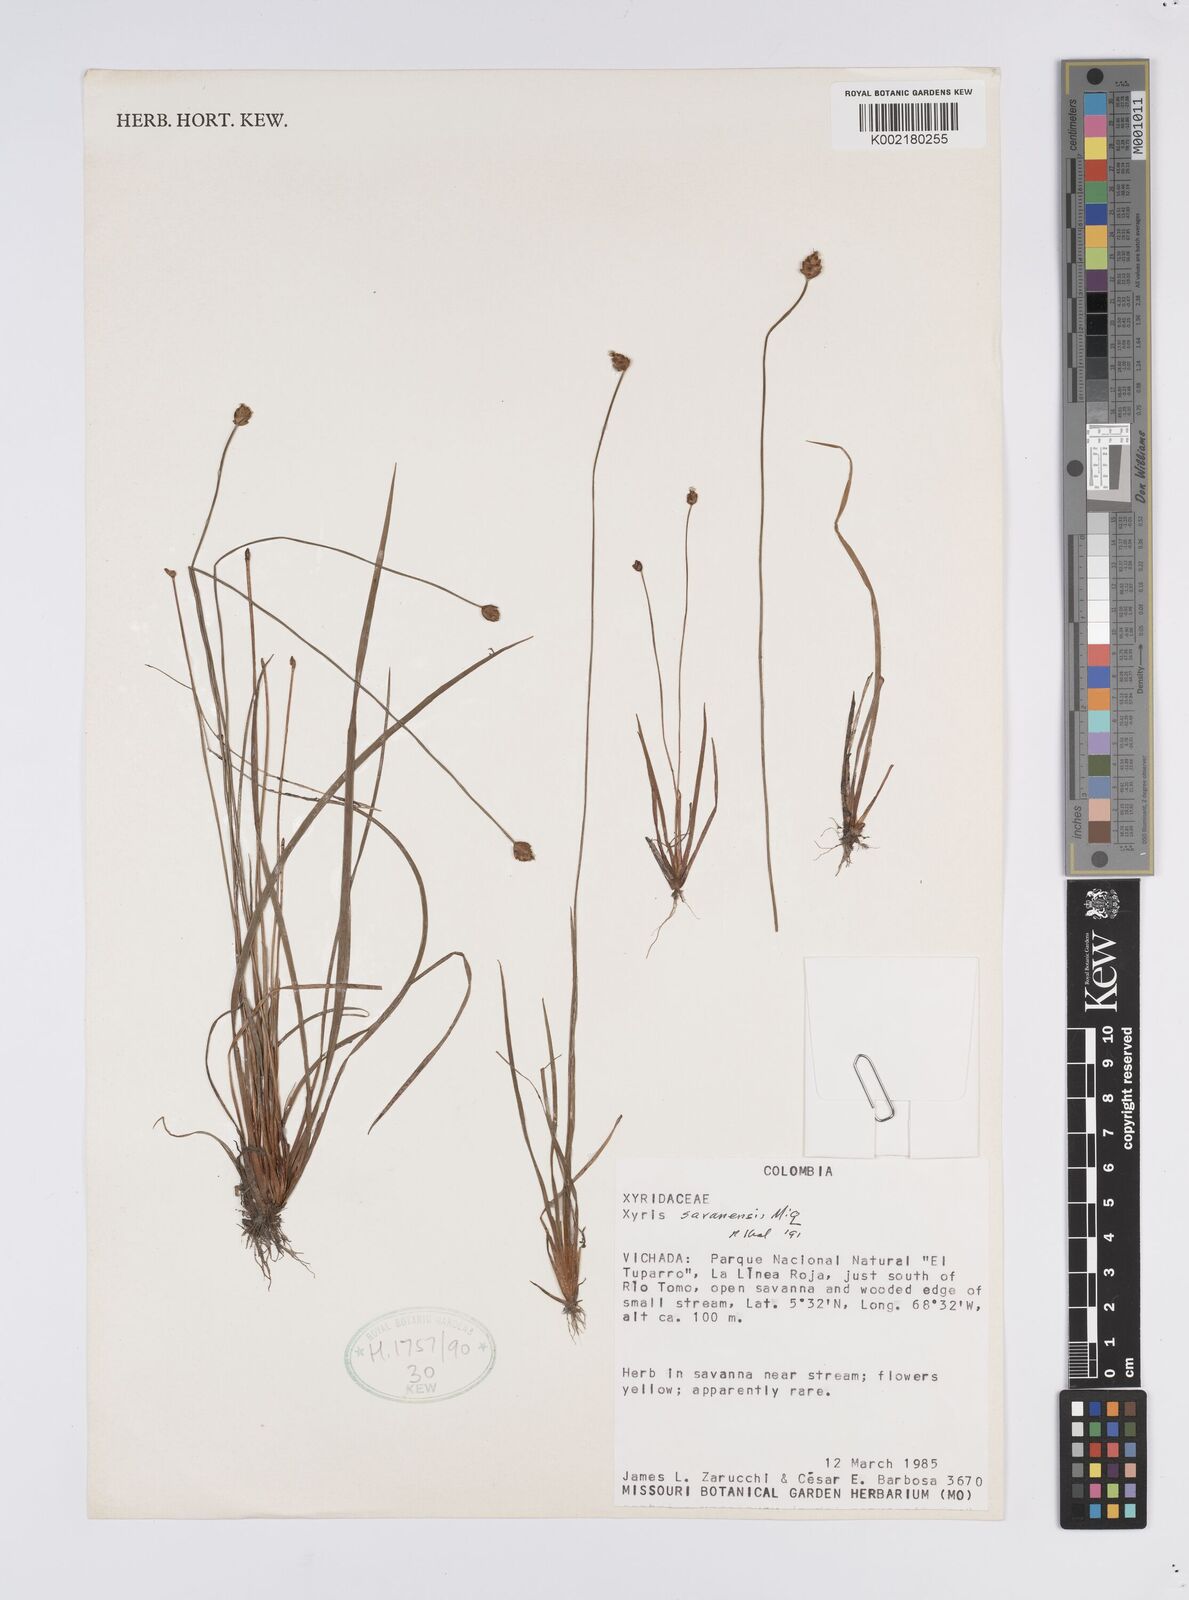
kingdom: Plantae
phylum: Tracheophyta
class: Liliopsida
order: Poales
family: Xyridaceae
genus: Xyris
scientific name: Xyris savanensis
